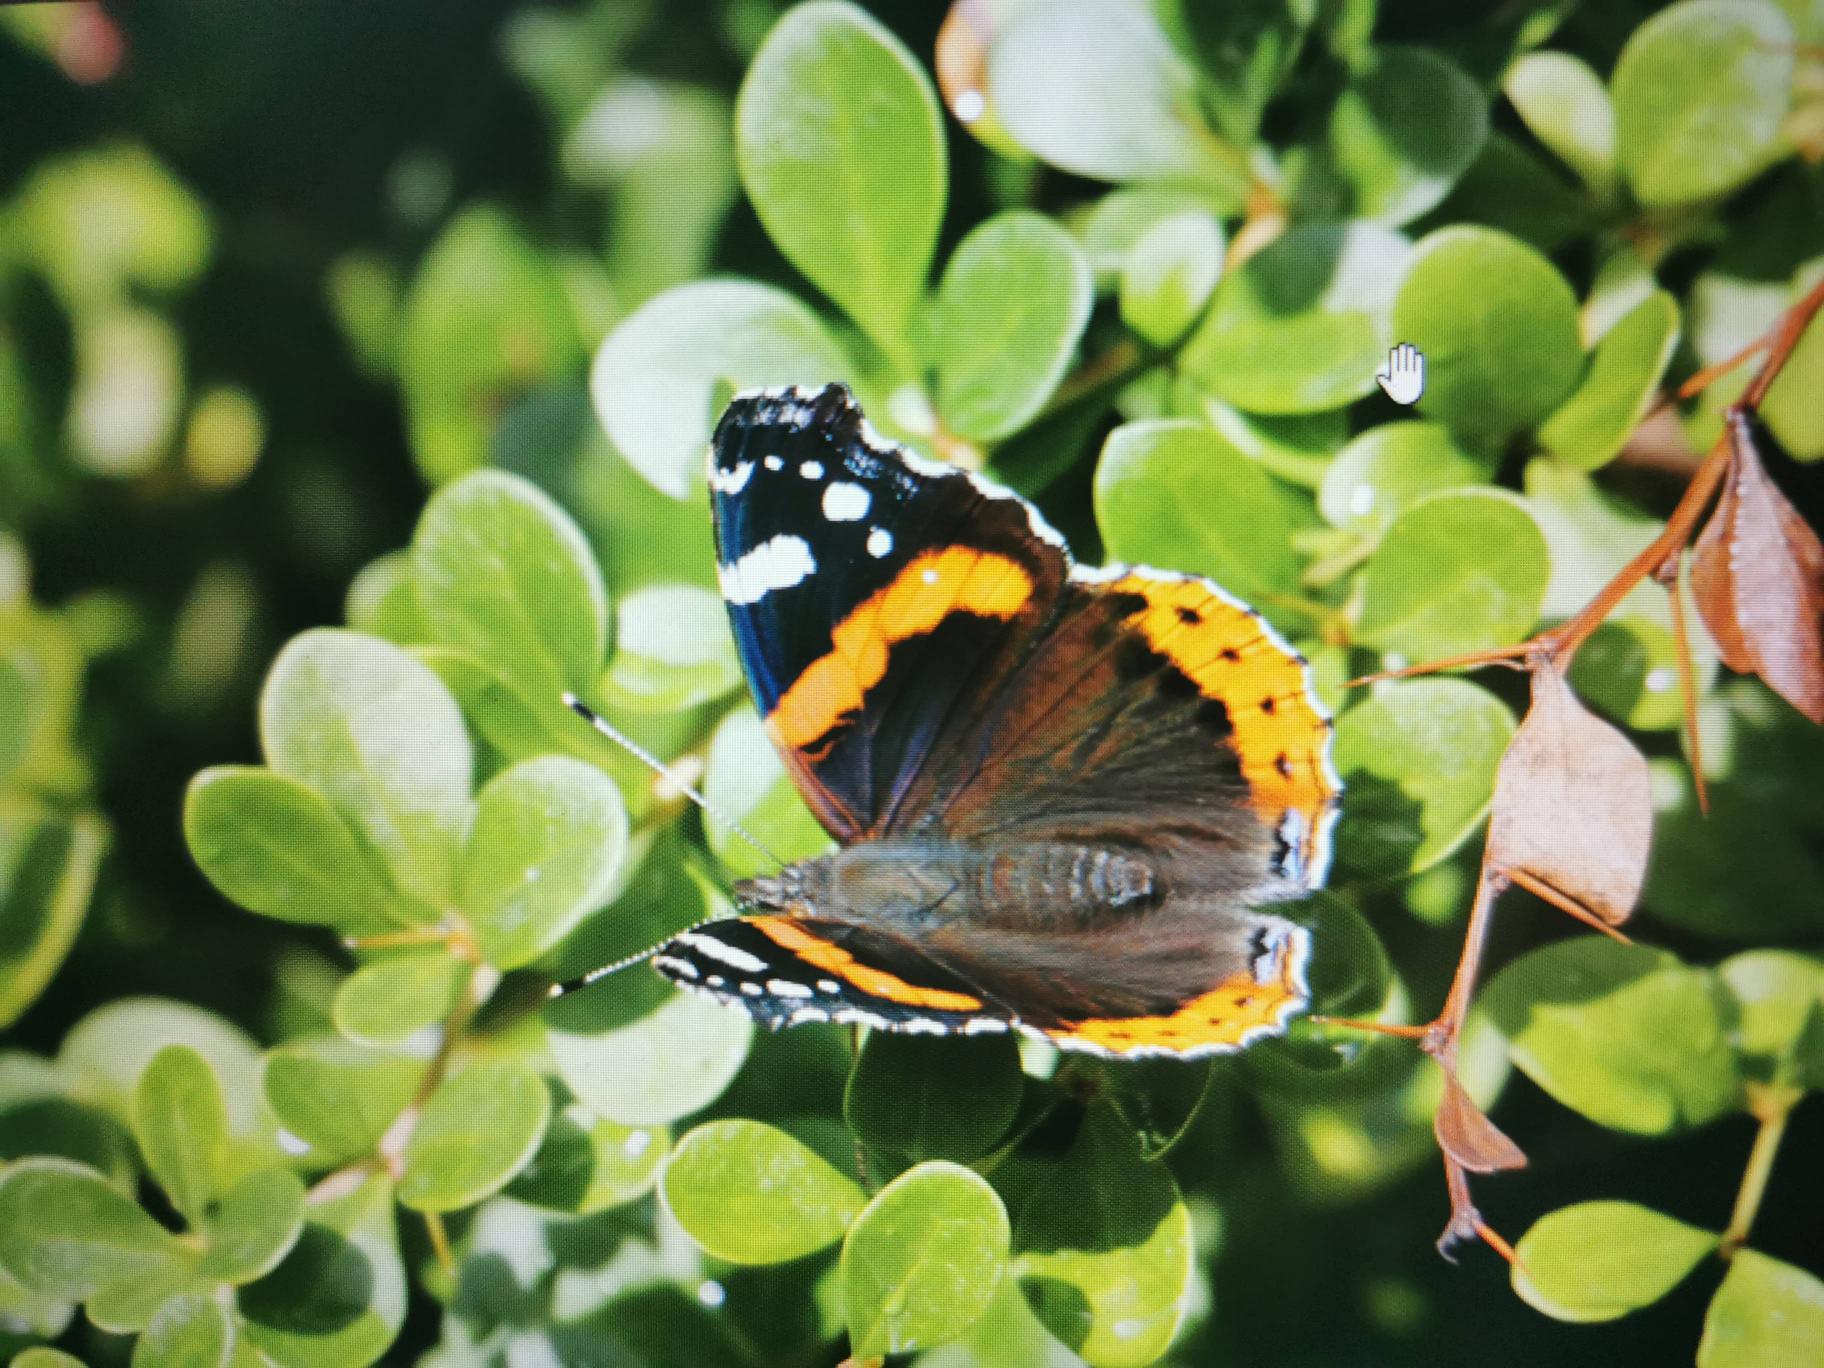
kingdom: Animalia
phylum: Arthropoda
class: Insecta
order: Lepidoptera
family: Nymphalidae
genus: Vanessa
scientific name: Vanessa atalanta
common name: Admiral
